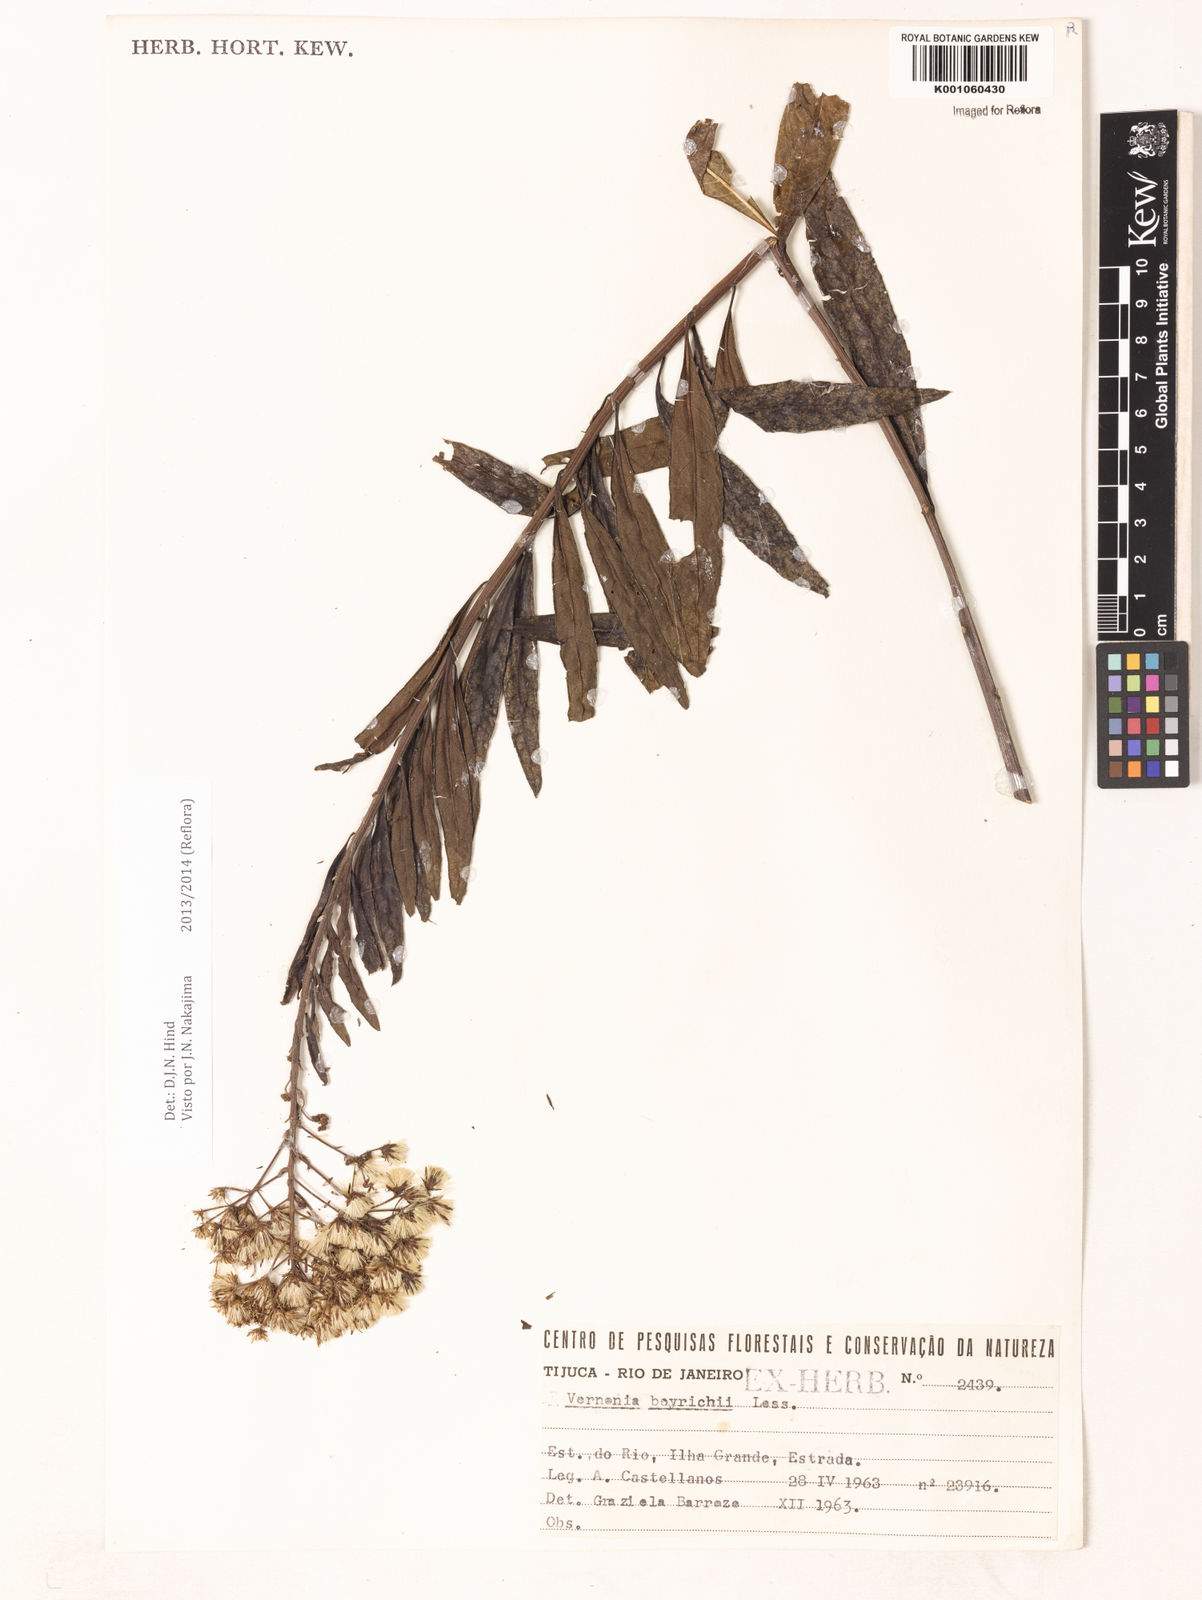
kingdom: Plantae
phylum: Tracheophyta
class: Magnoliopsida
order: Asterales
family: Asteraceae
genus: Vernonanthura
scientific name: Vernonanthura beyrichii
